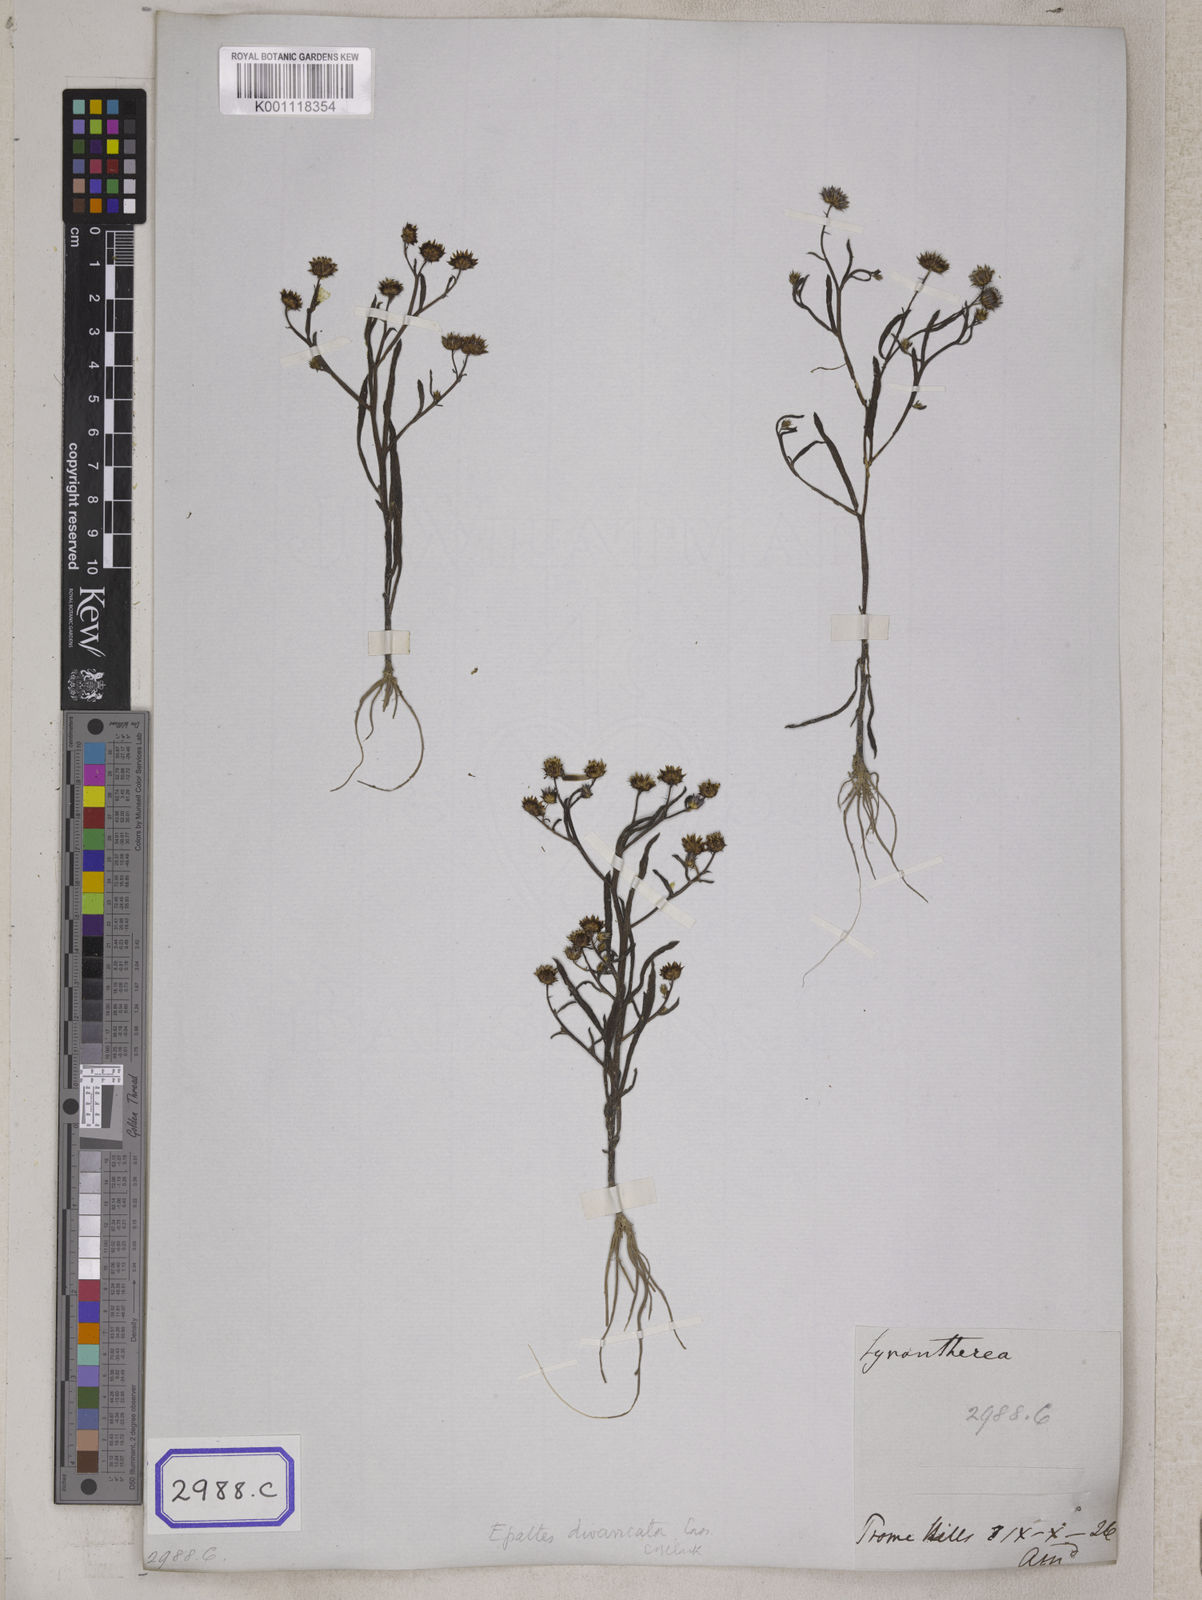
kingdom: Plantae
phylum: Tracheophyta
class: Magnoliopsida
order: Asterales
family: Asteraceae
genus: Brachyscome
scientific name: Brachyscome assamica
